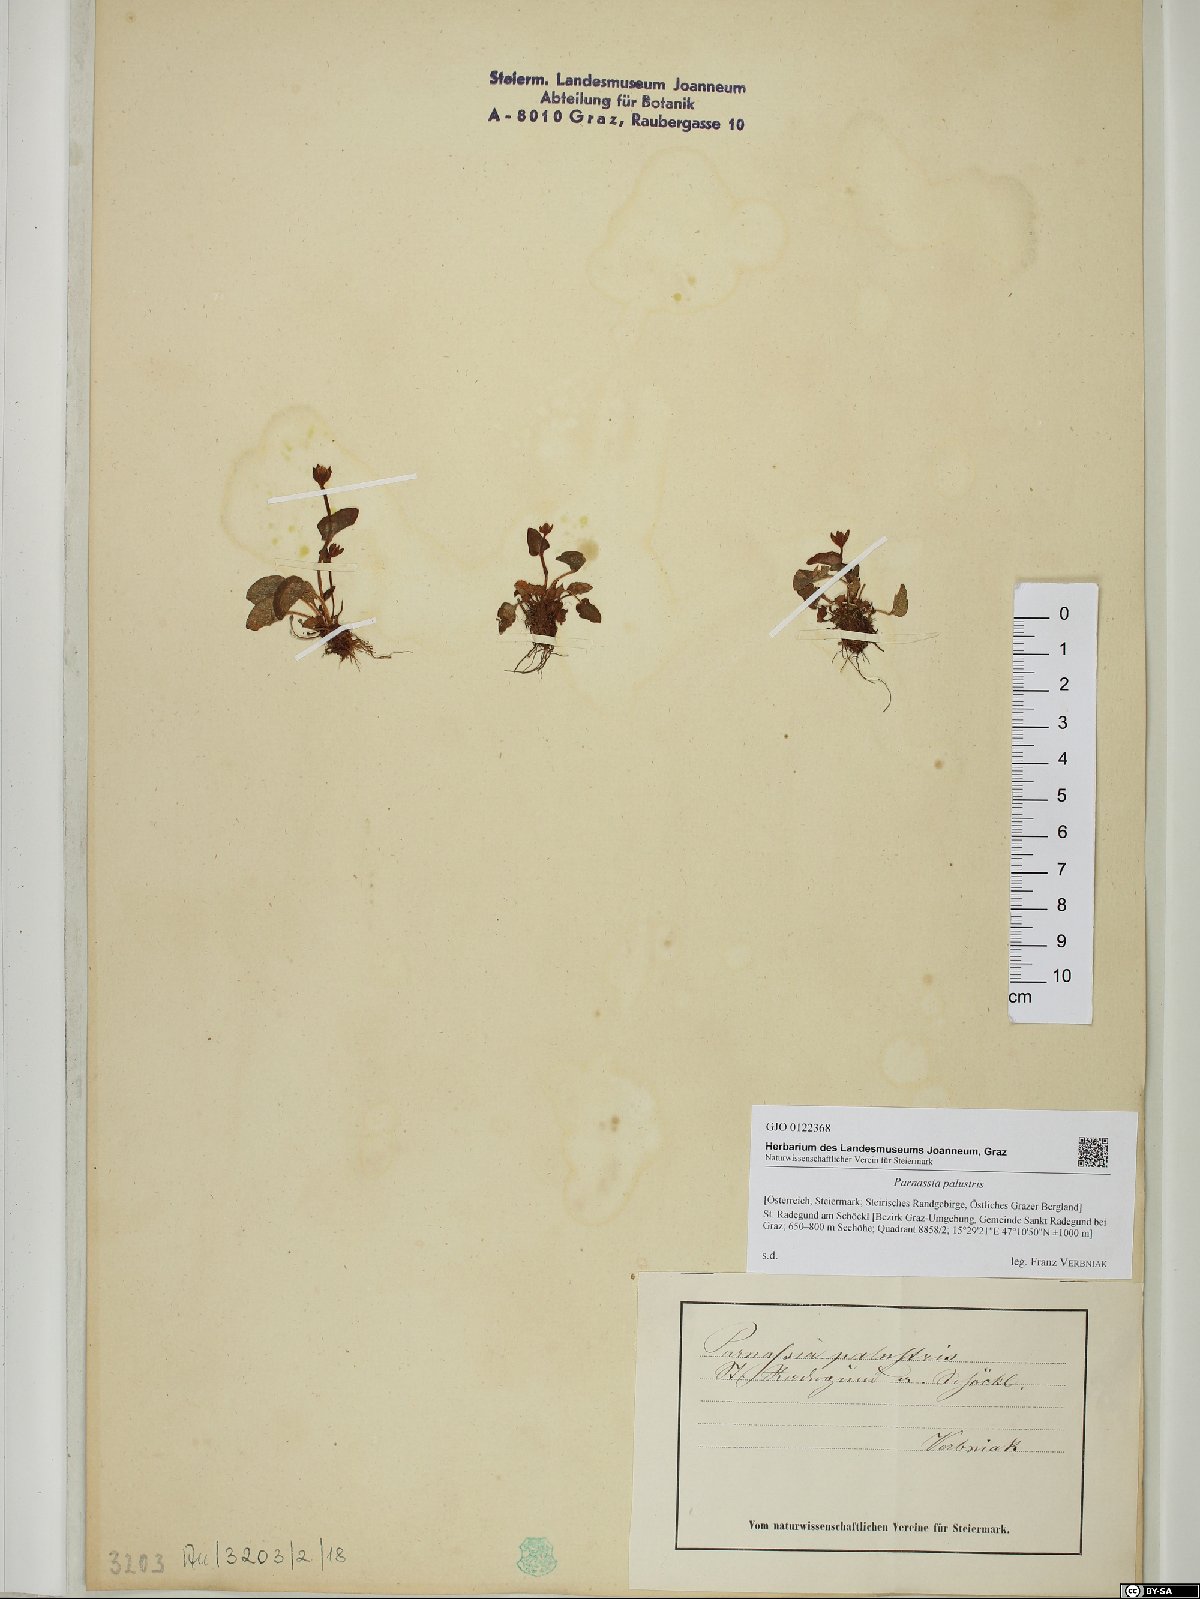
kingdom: Plantae
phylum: Tracheophyta
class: Magnoliopsida
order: Celastrales
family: Parnassiaceae
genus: Parnassia
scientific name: Parnassia palustris
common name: Grass-of-parnassus
